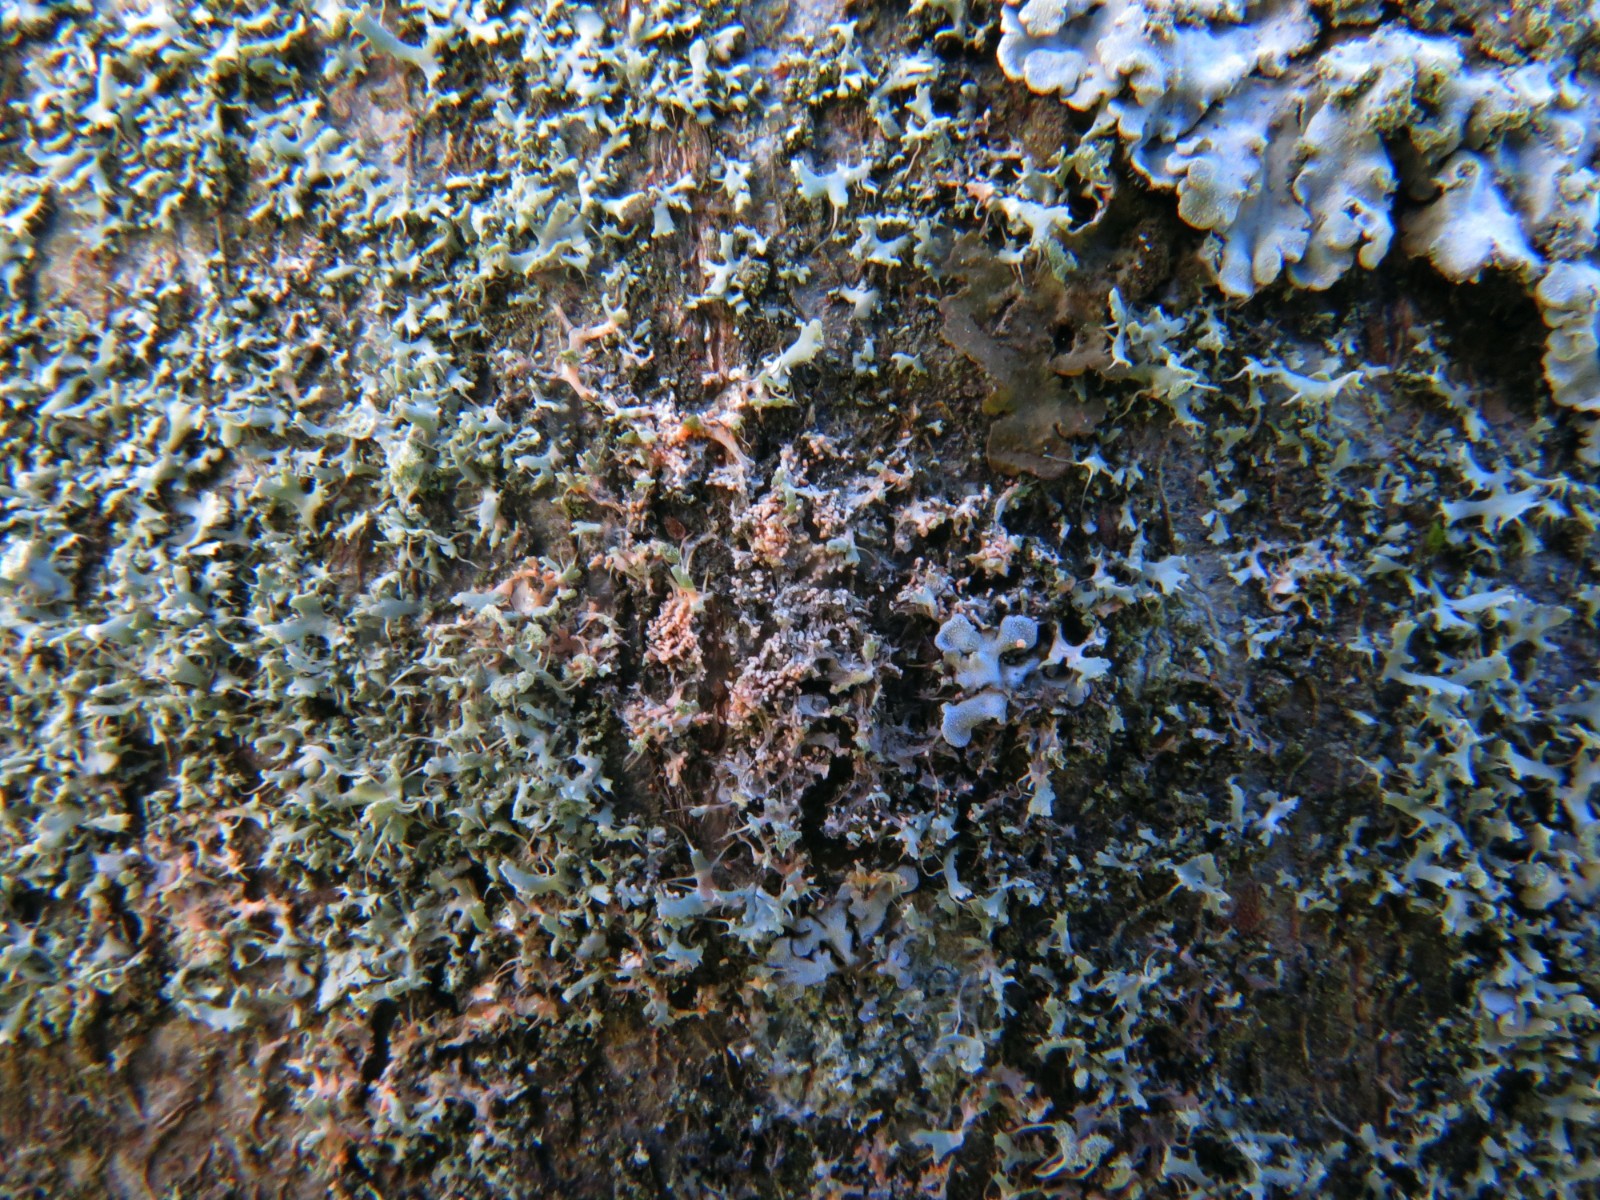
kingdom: Fungi
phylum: Basidiomycota
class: Agaricomycetes
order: Corticiales
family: Corticiaceae
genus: Erythricium
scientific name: Erythricium aurantiacum
